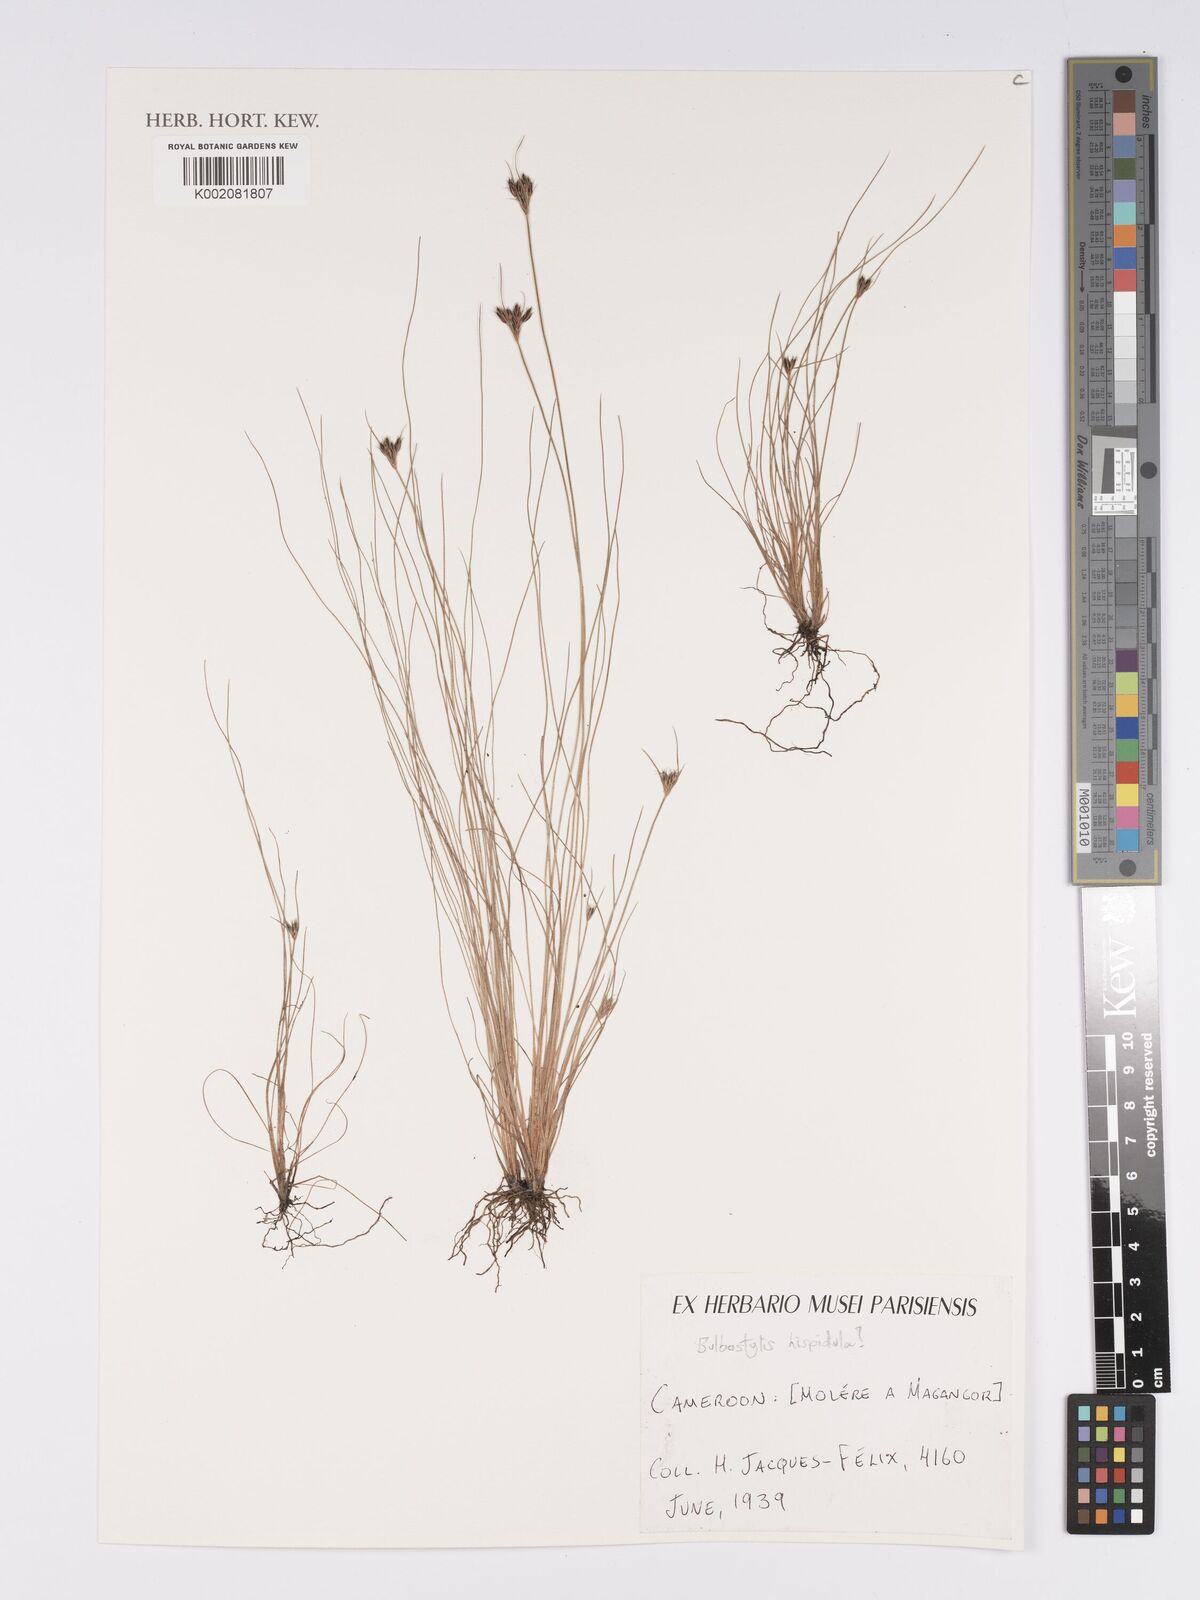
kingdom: Plantae
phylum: Tracheophyta
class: Liliopsida
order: Poales
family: Cyperaceae
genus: Bulbostylis
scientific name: Bulbostylis hispidula
